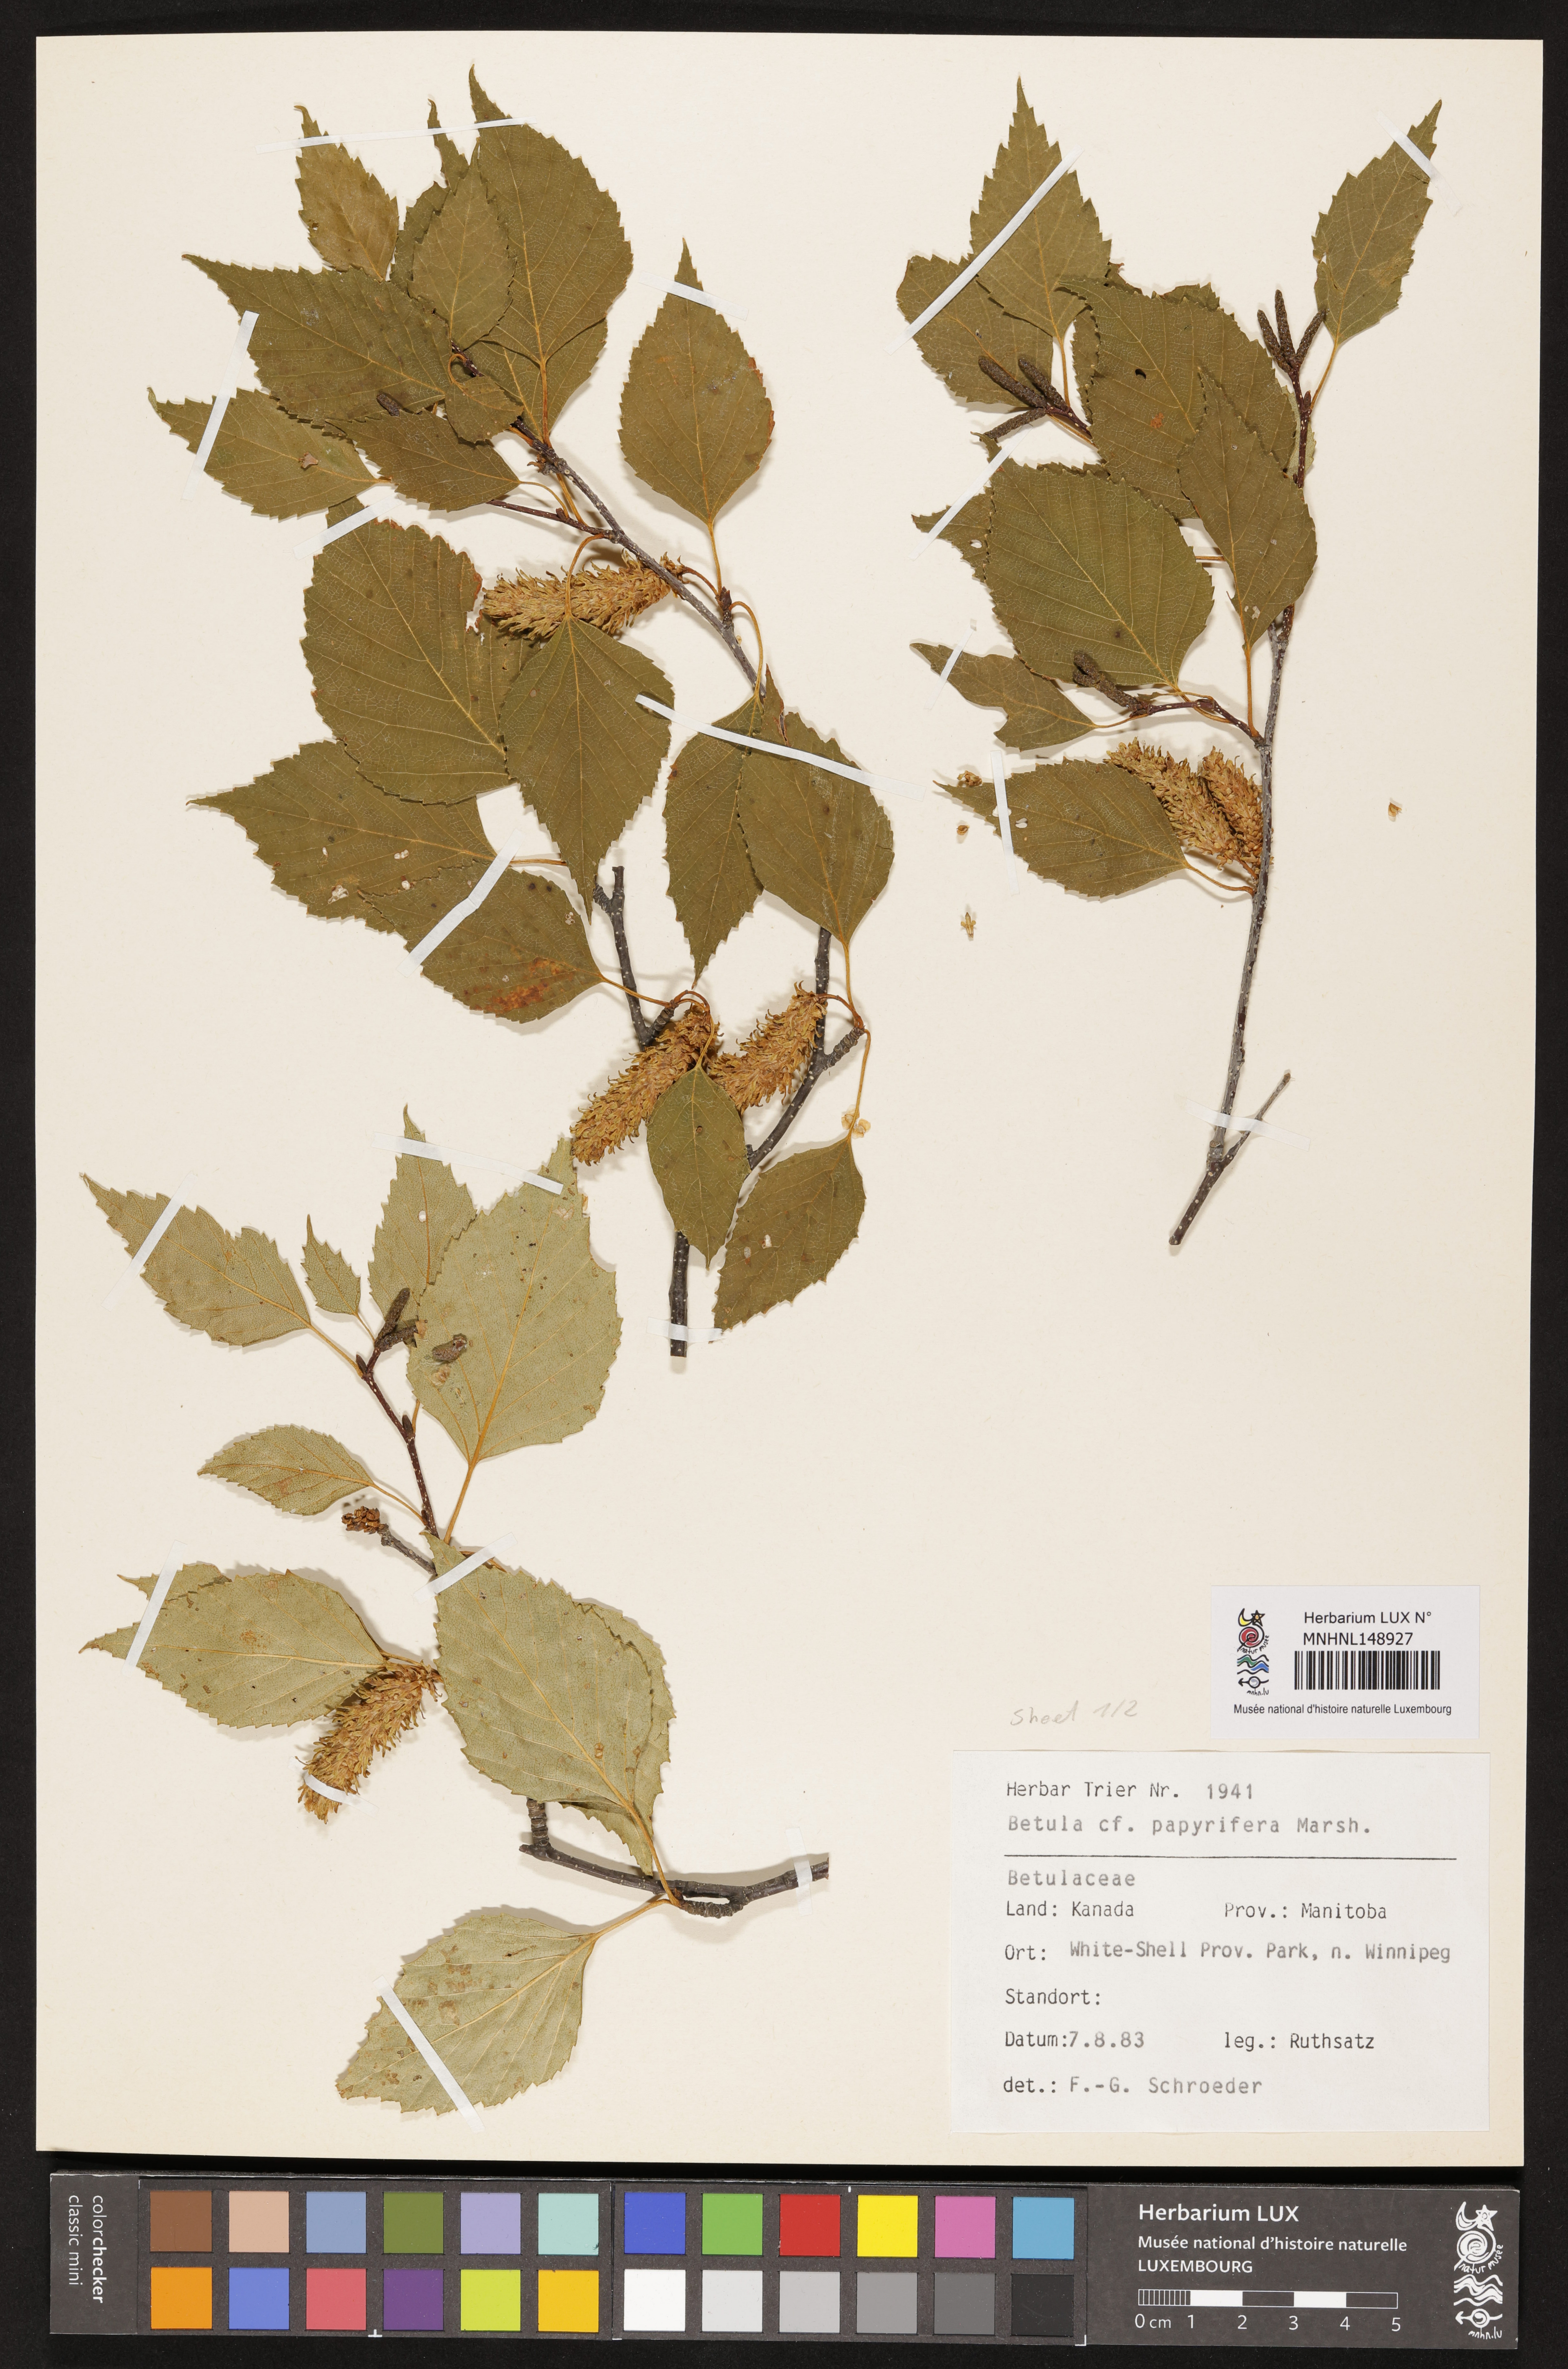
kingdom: Plantae
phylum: Tracheophyta
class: Magnoliopsida
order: Fagales
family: Betulaceae
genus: Betula
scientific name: Betula papyrifera
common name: Paper birch
